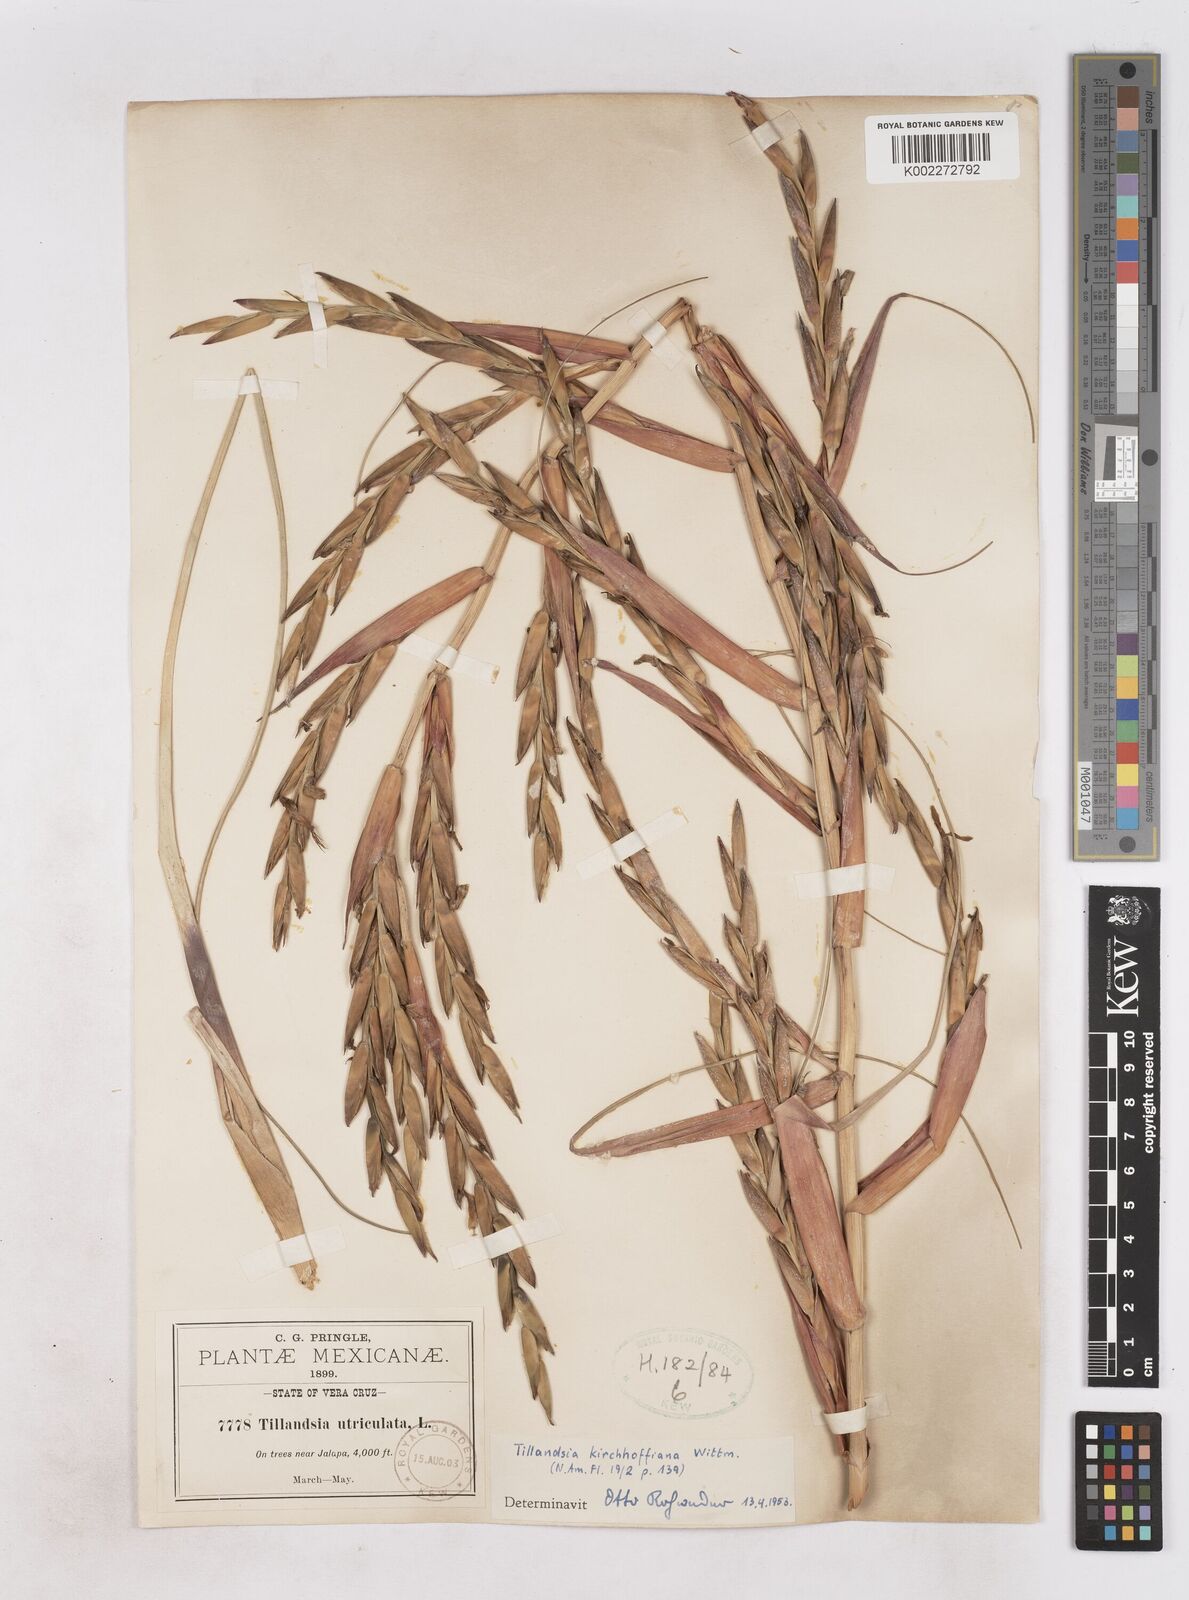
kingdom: Plantae
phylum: Tracheophyta
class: Liliopsida
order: Poales
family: Bromeliaceae
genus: Tillandsia
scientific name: Tillandsia kirchhoffiana
